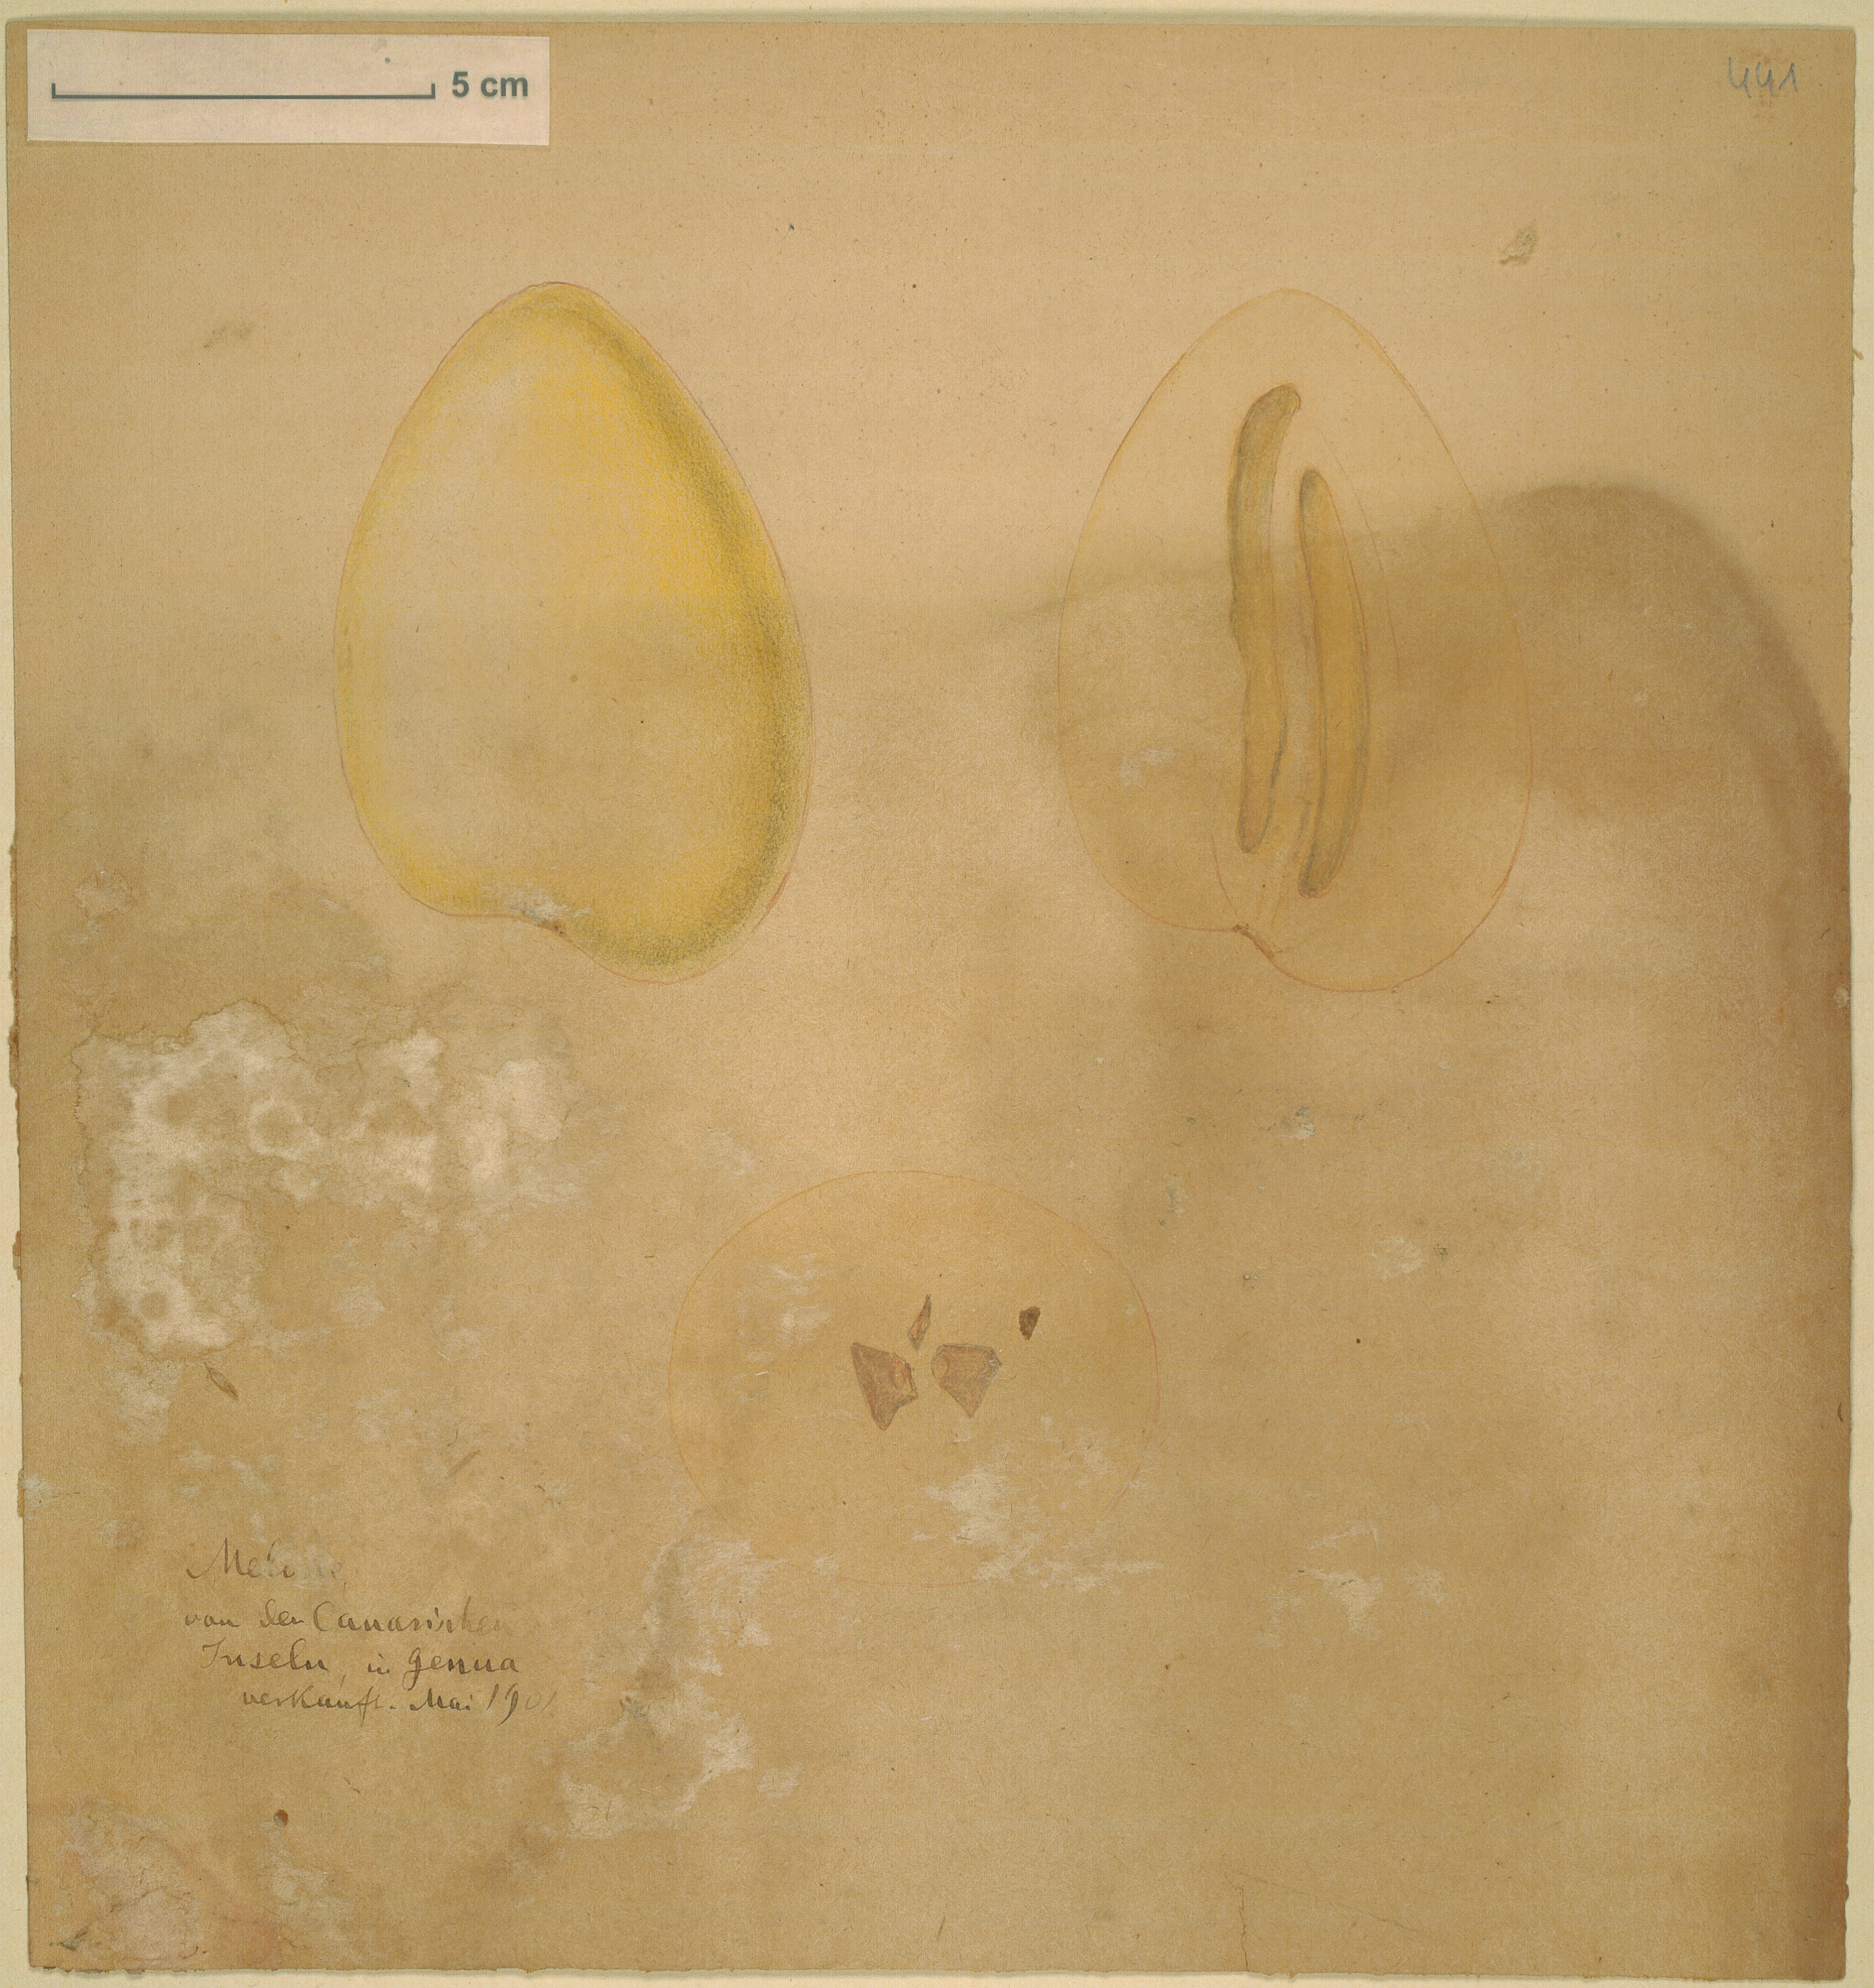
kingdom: Plantae
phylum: Tracheophyta
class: Magnoliopsida
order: Cucurbitales
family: Cucurbitaceae
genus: Cucumis
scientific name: Cucumis melo
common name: Melon
